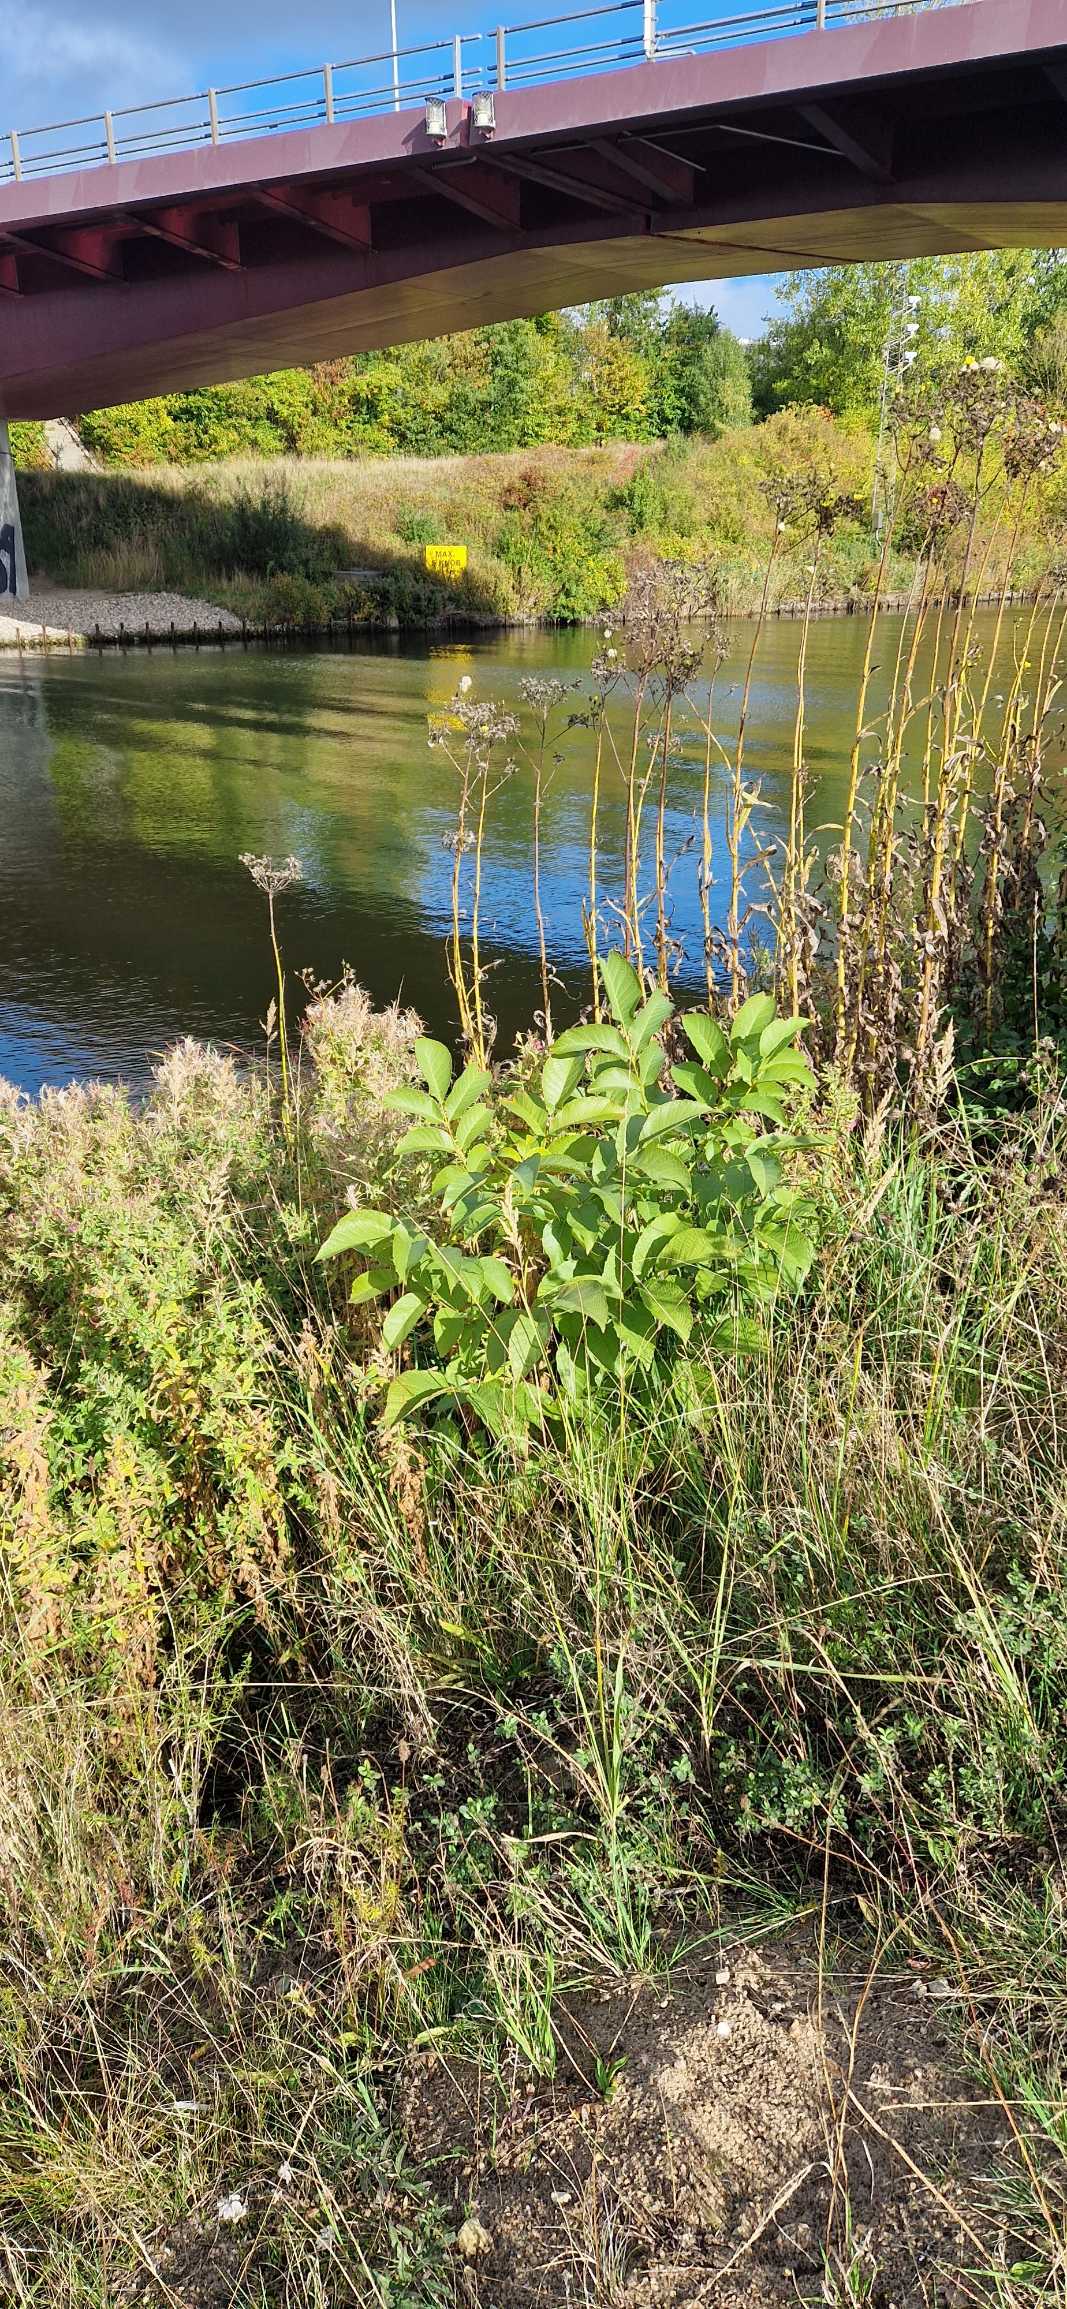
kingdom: Plantae
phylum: Tracheophyta
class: Magnoliopsida
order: Fagales
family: Juglandaceae
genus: Juglans
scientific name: Juglans regia
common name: Almindelig valnød
